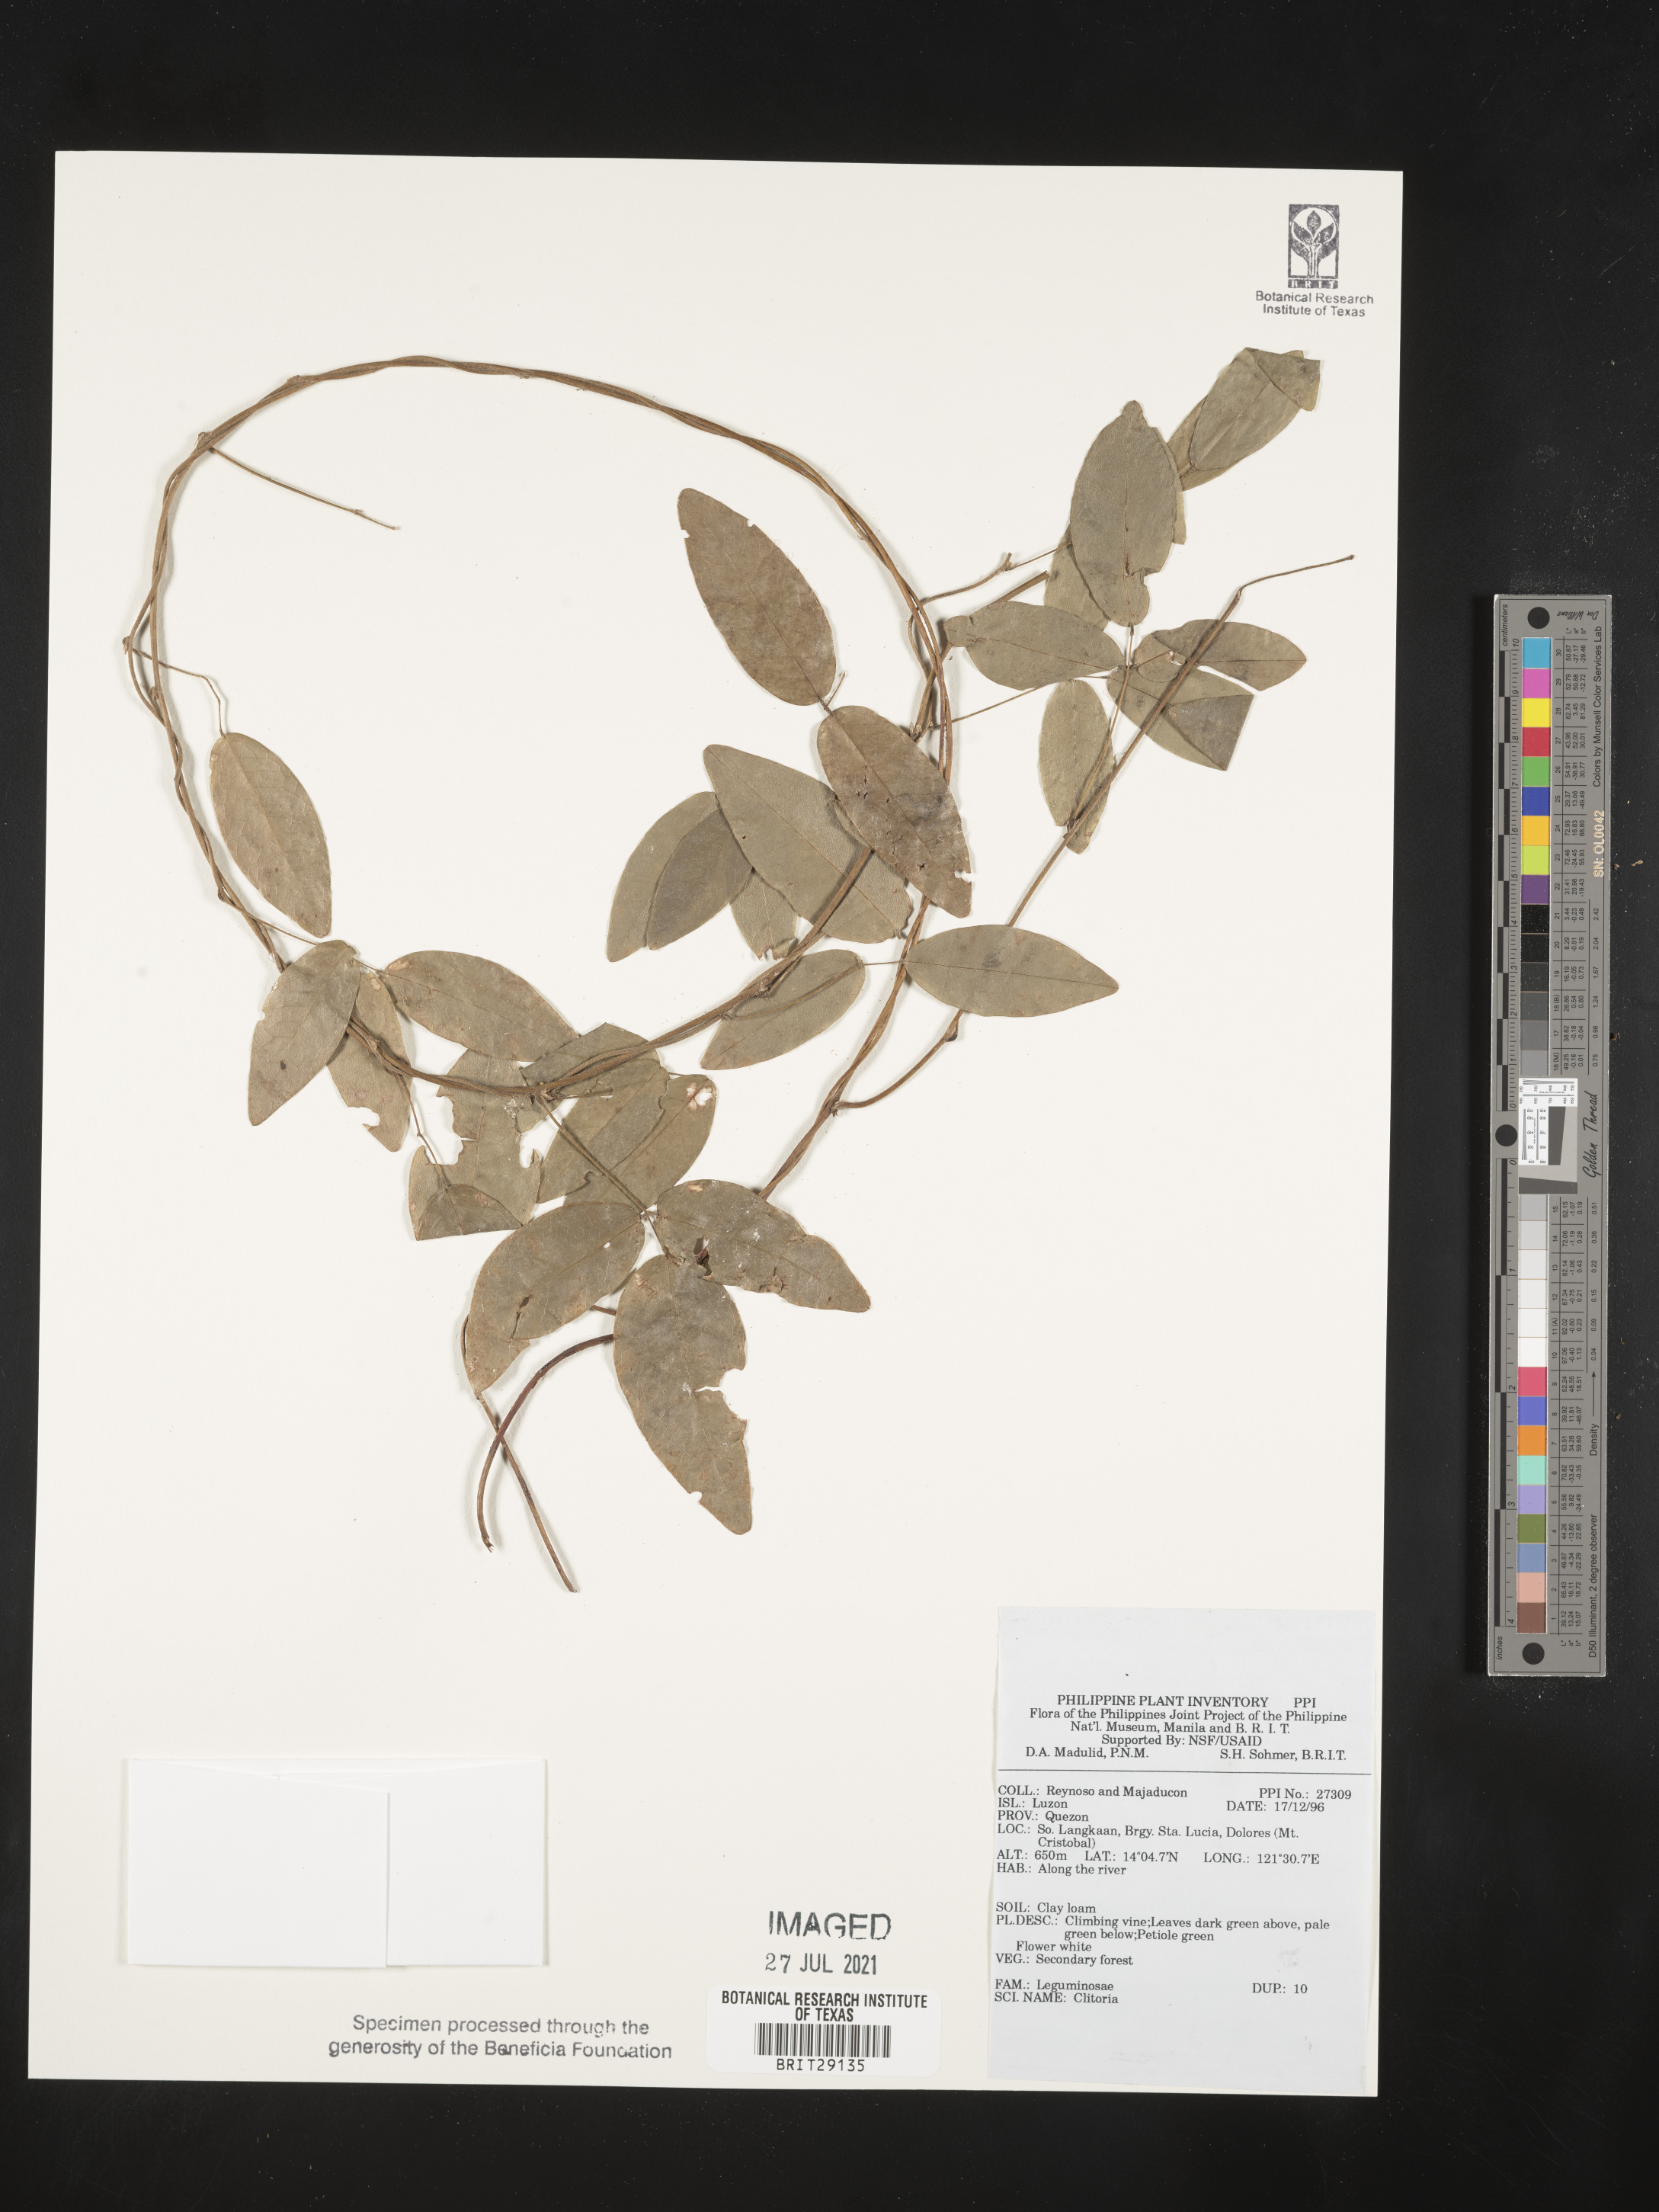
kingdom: Plantae
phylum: Tracheophyta
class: Magnoliopsida
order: Fabales
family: Fabaceae
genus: Clitoria
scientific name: Clitoria
